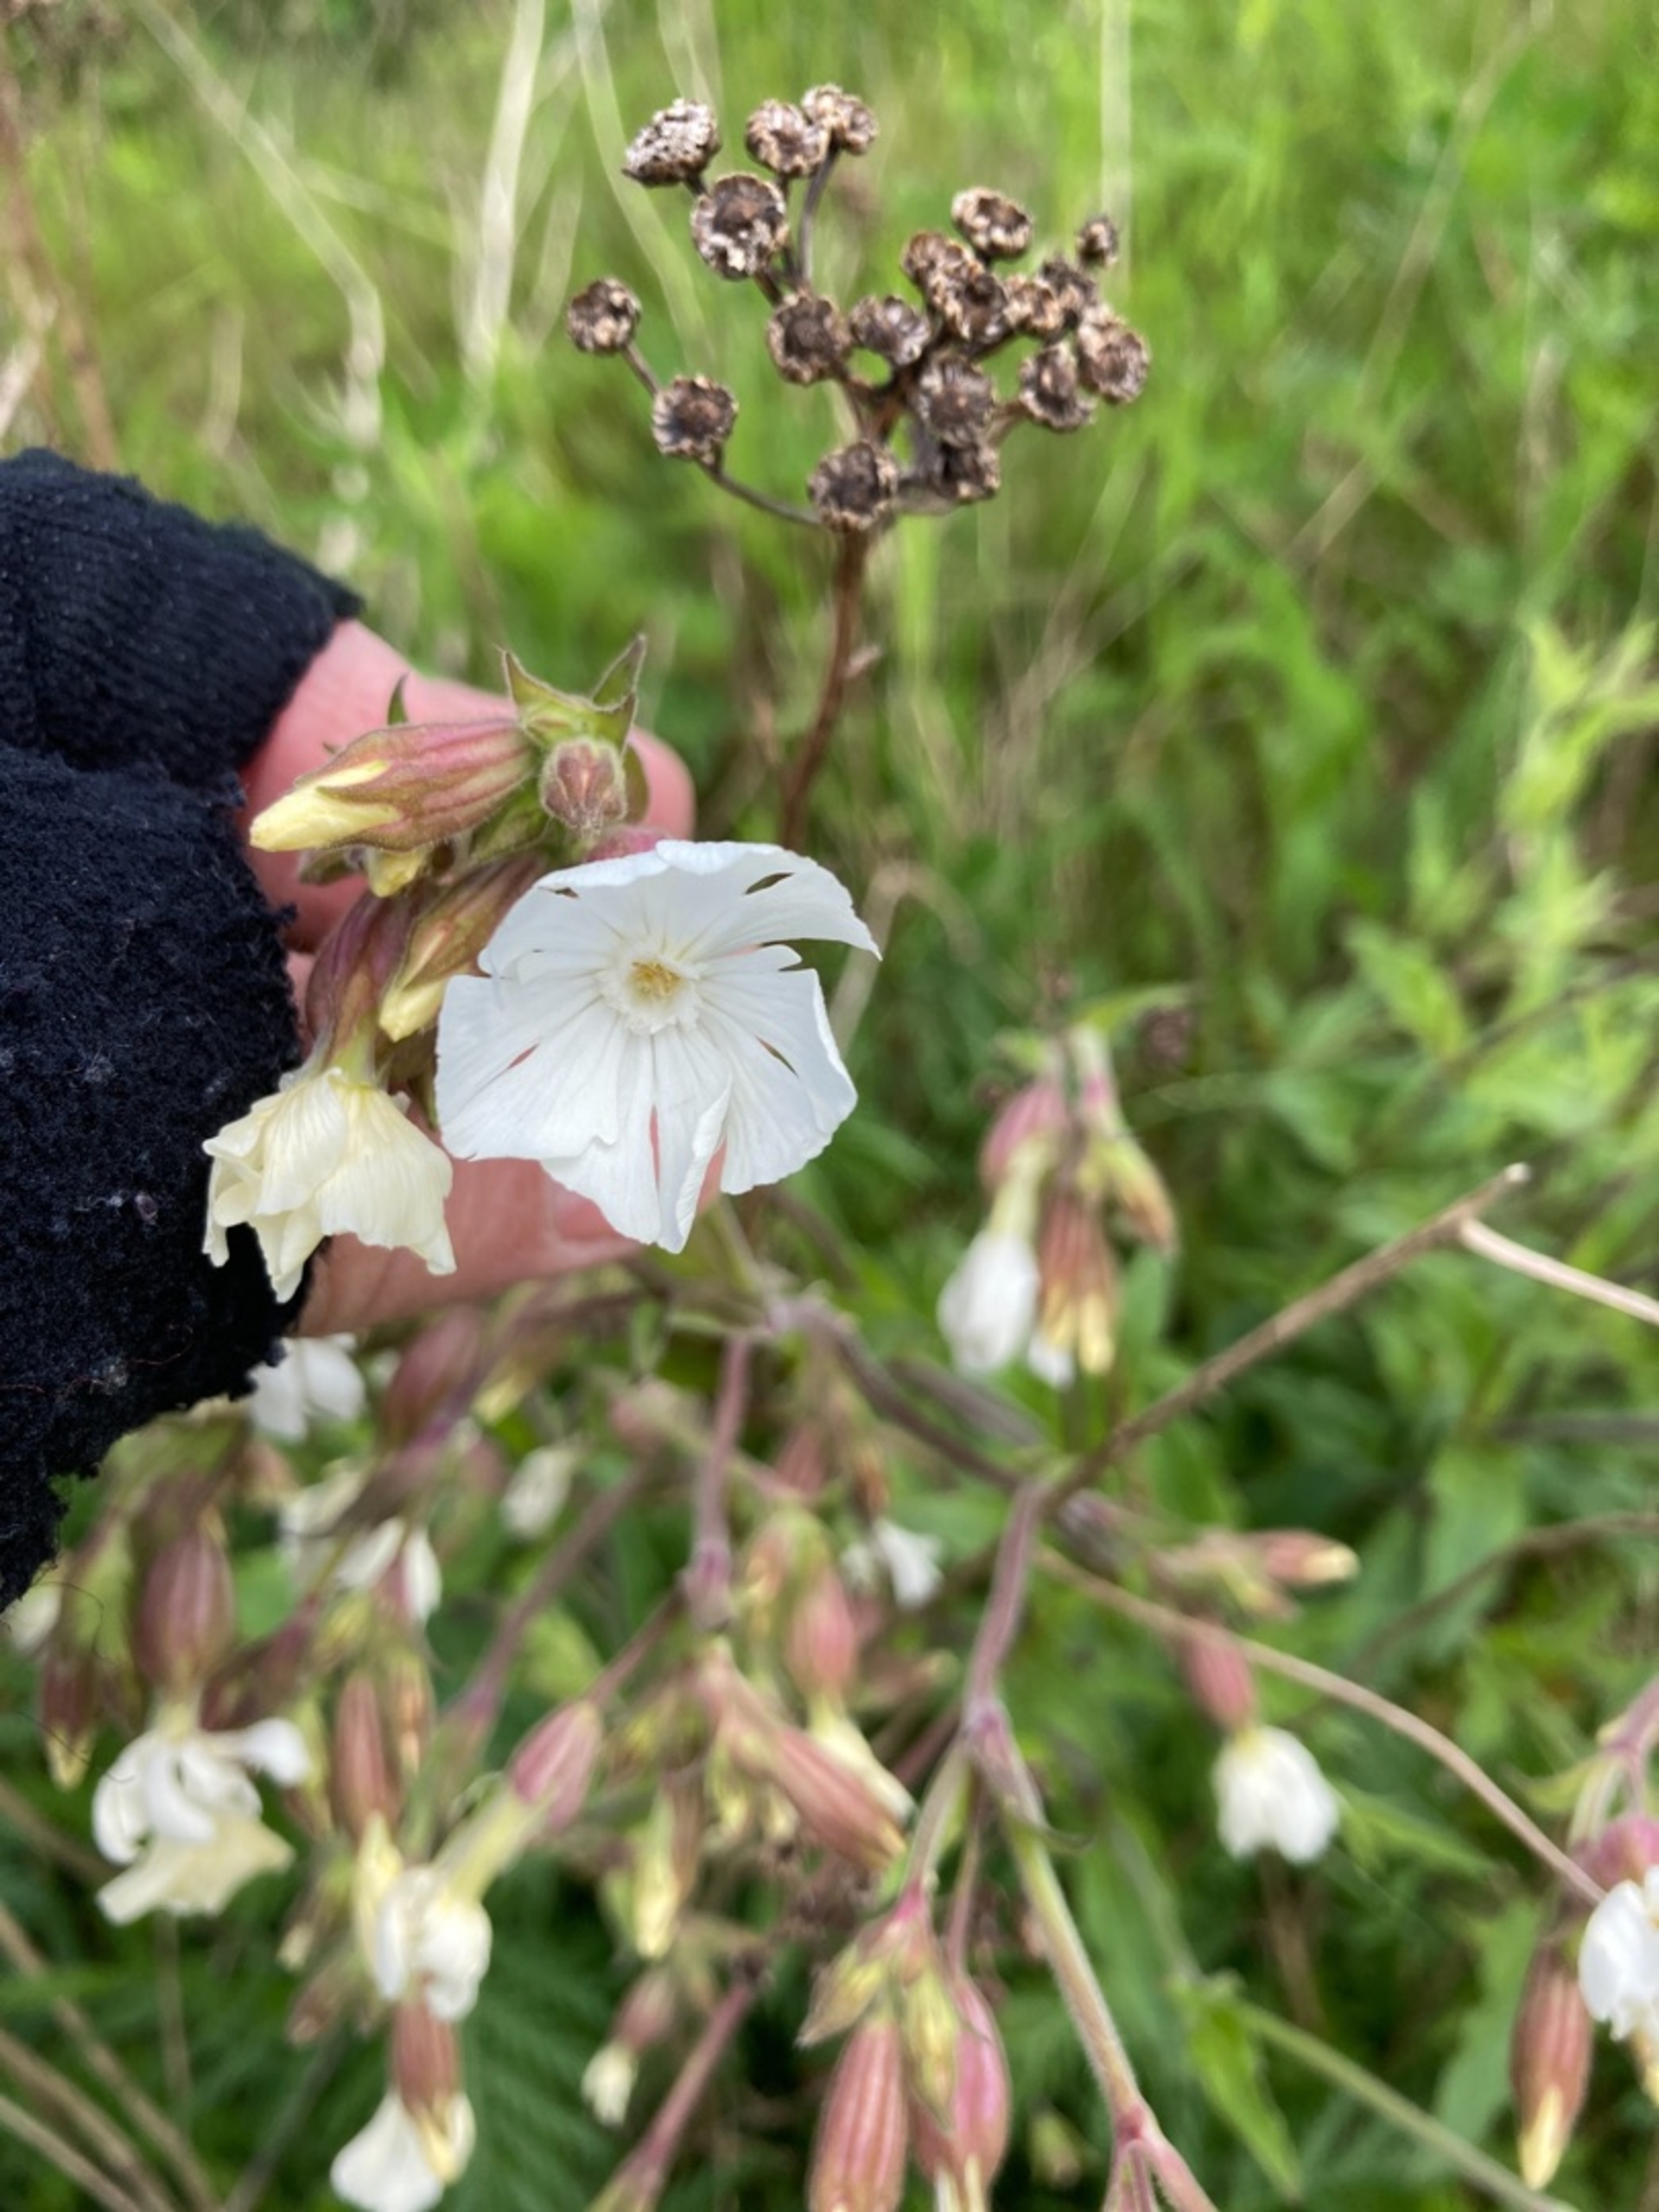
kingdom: Plantae
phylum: Tracheophyta
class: Magnoliopsida
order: Caryophyllales
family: Caryophyllaceae
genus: Silene
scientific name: Silene latifolia
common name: Aftenpragtstjerne
